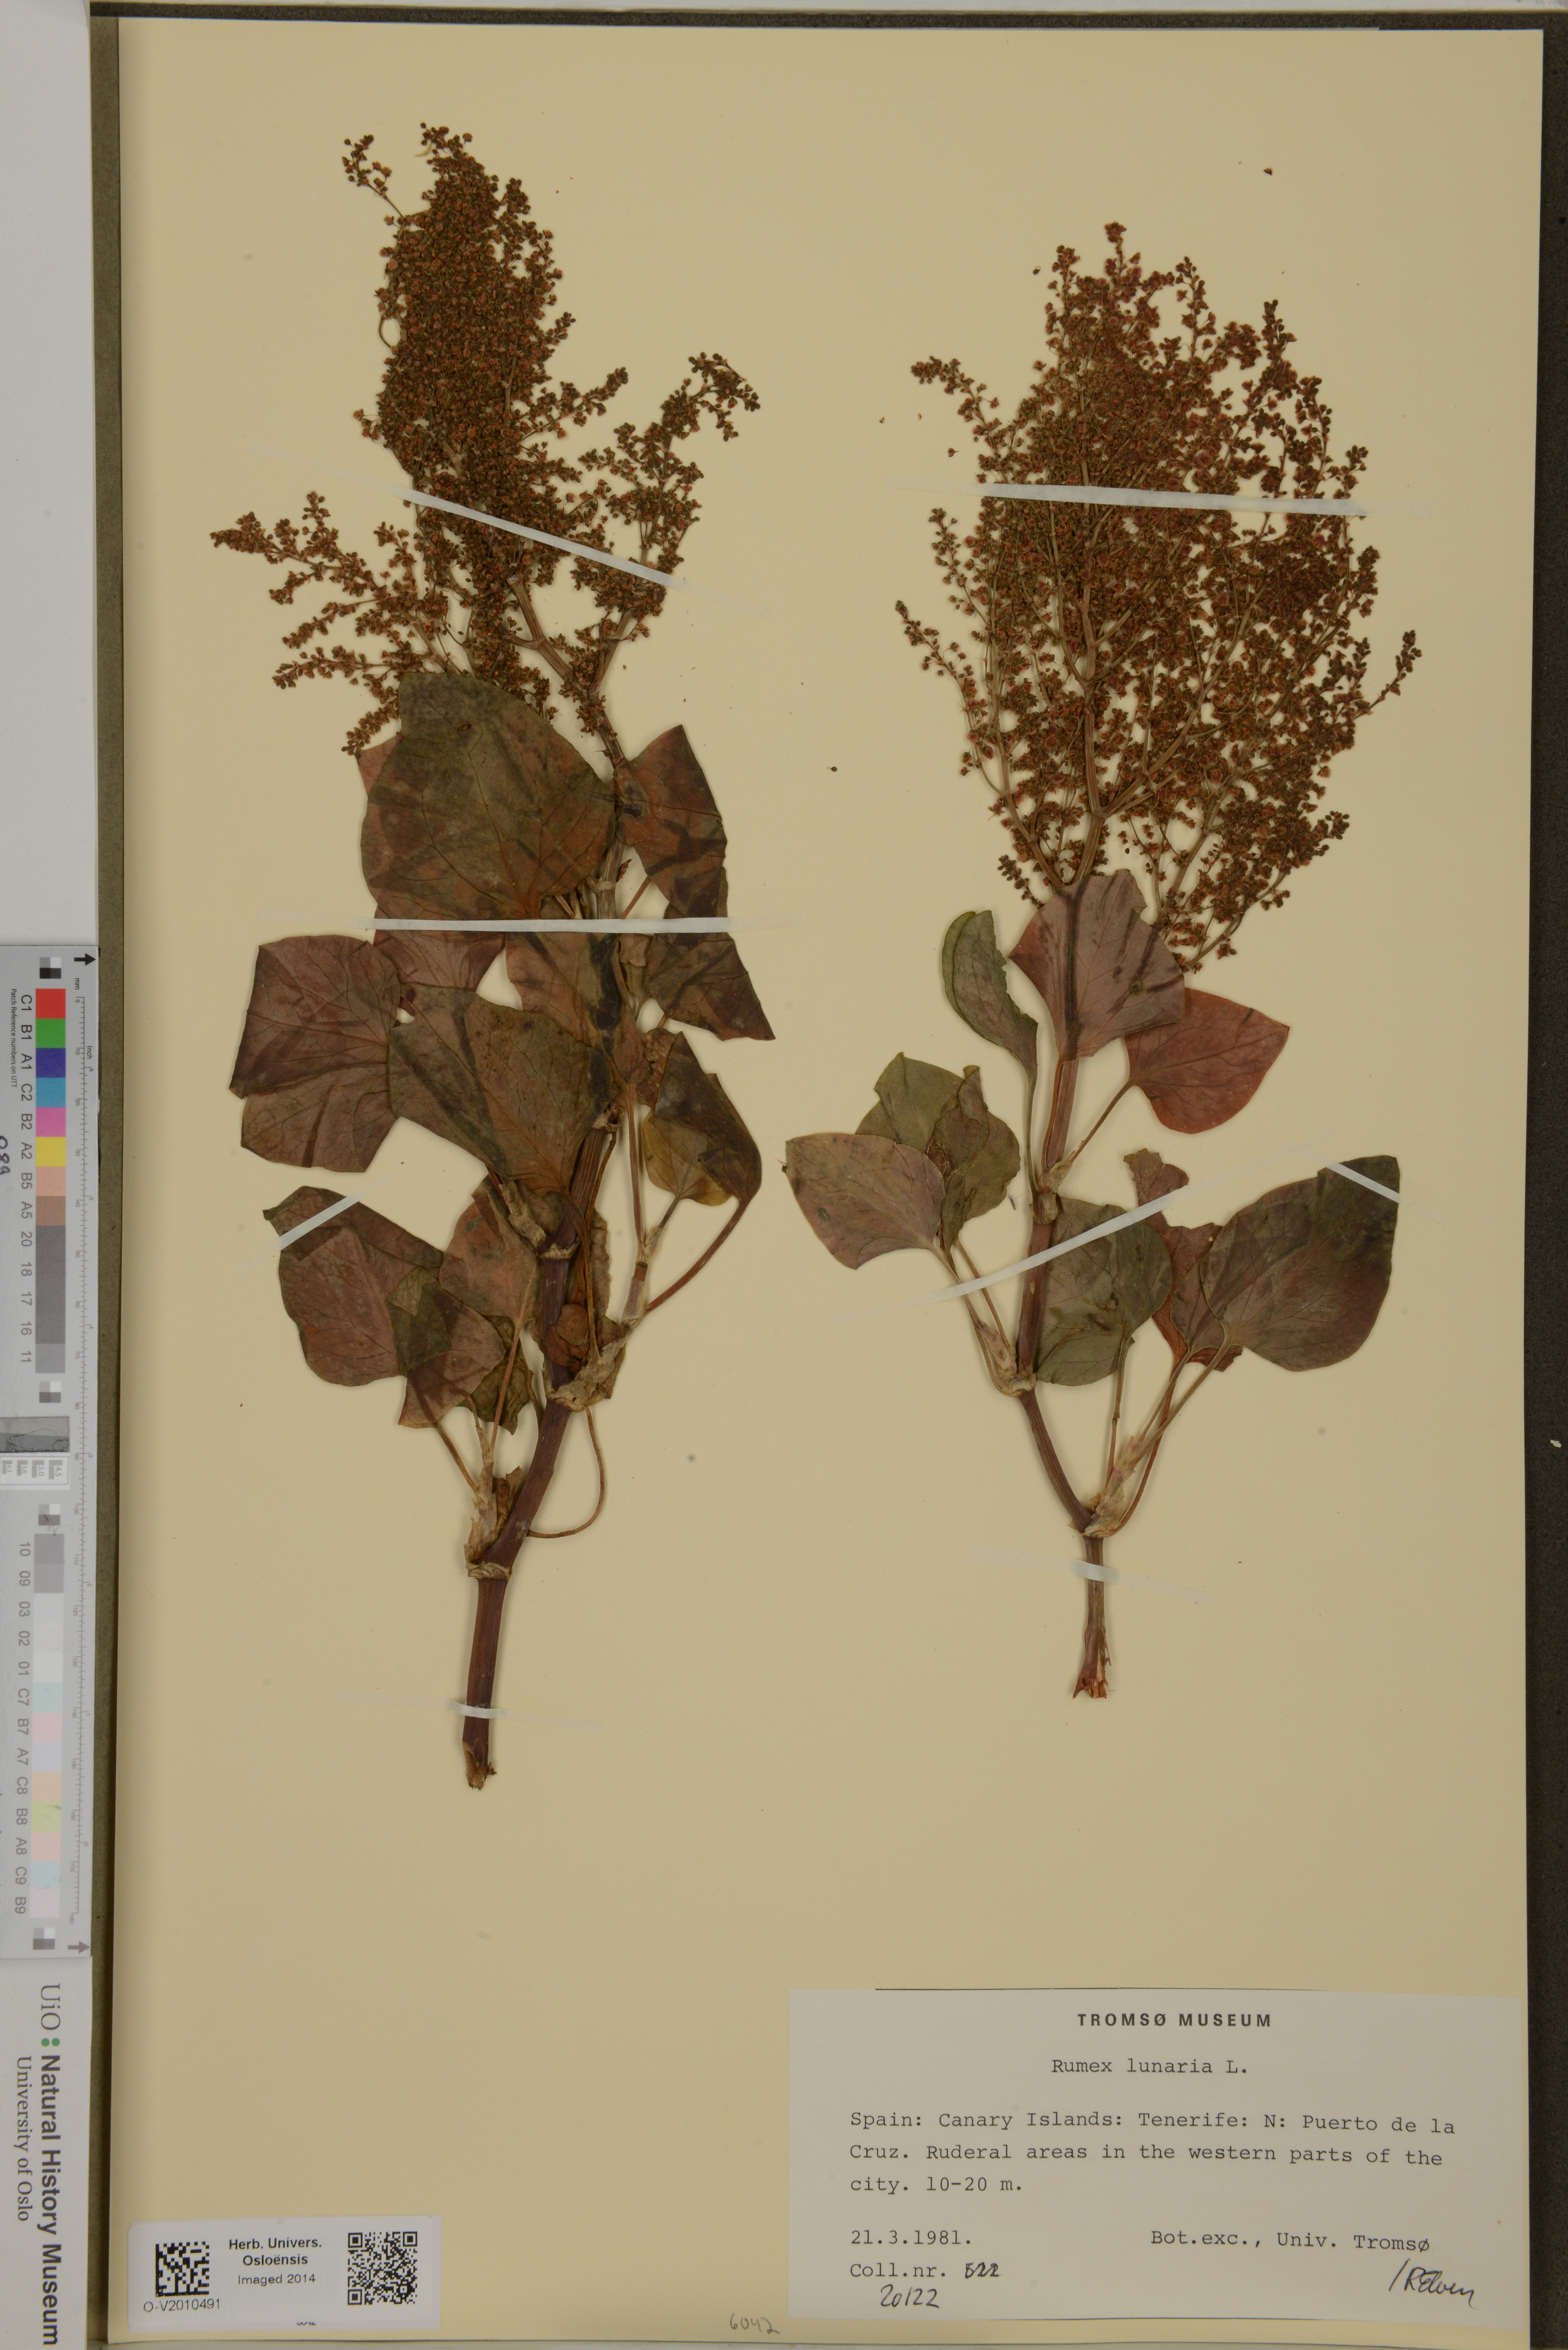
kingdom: Plantae
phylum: Tracheophyta
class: Magnoliopsida
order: Caryophyllales
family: Polygonaceae
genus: Rumex
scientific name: Rumex lunaria
